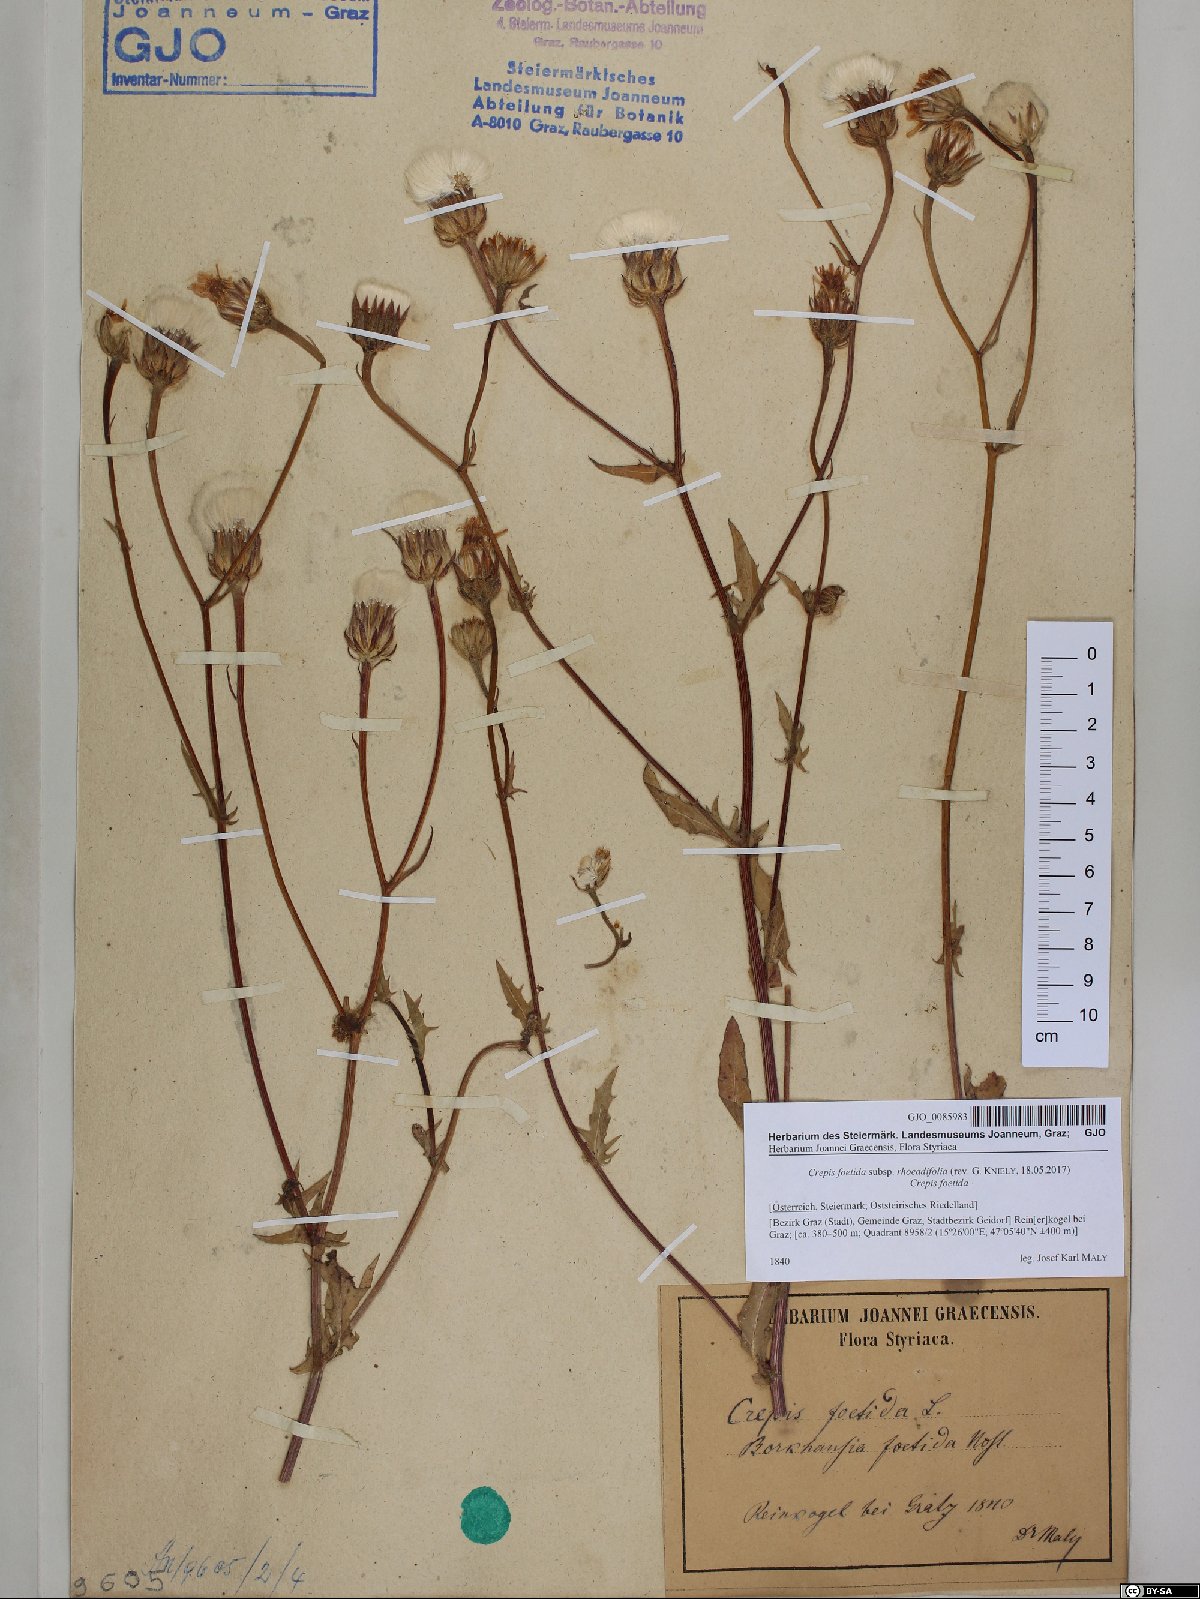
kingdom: Plantae
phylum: Tracheophyta
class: Magnoliopsida
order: Asterales
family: Asteraceae
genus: Crepis
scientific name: Crepis foetida
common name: Stinking hawk's-beard
